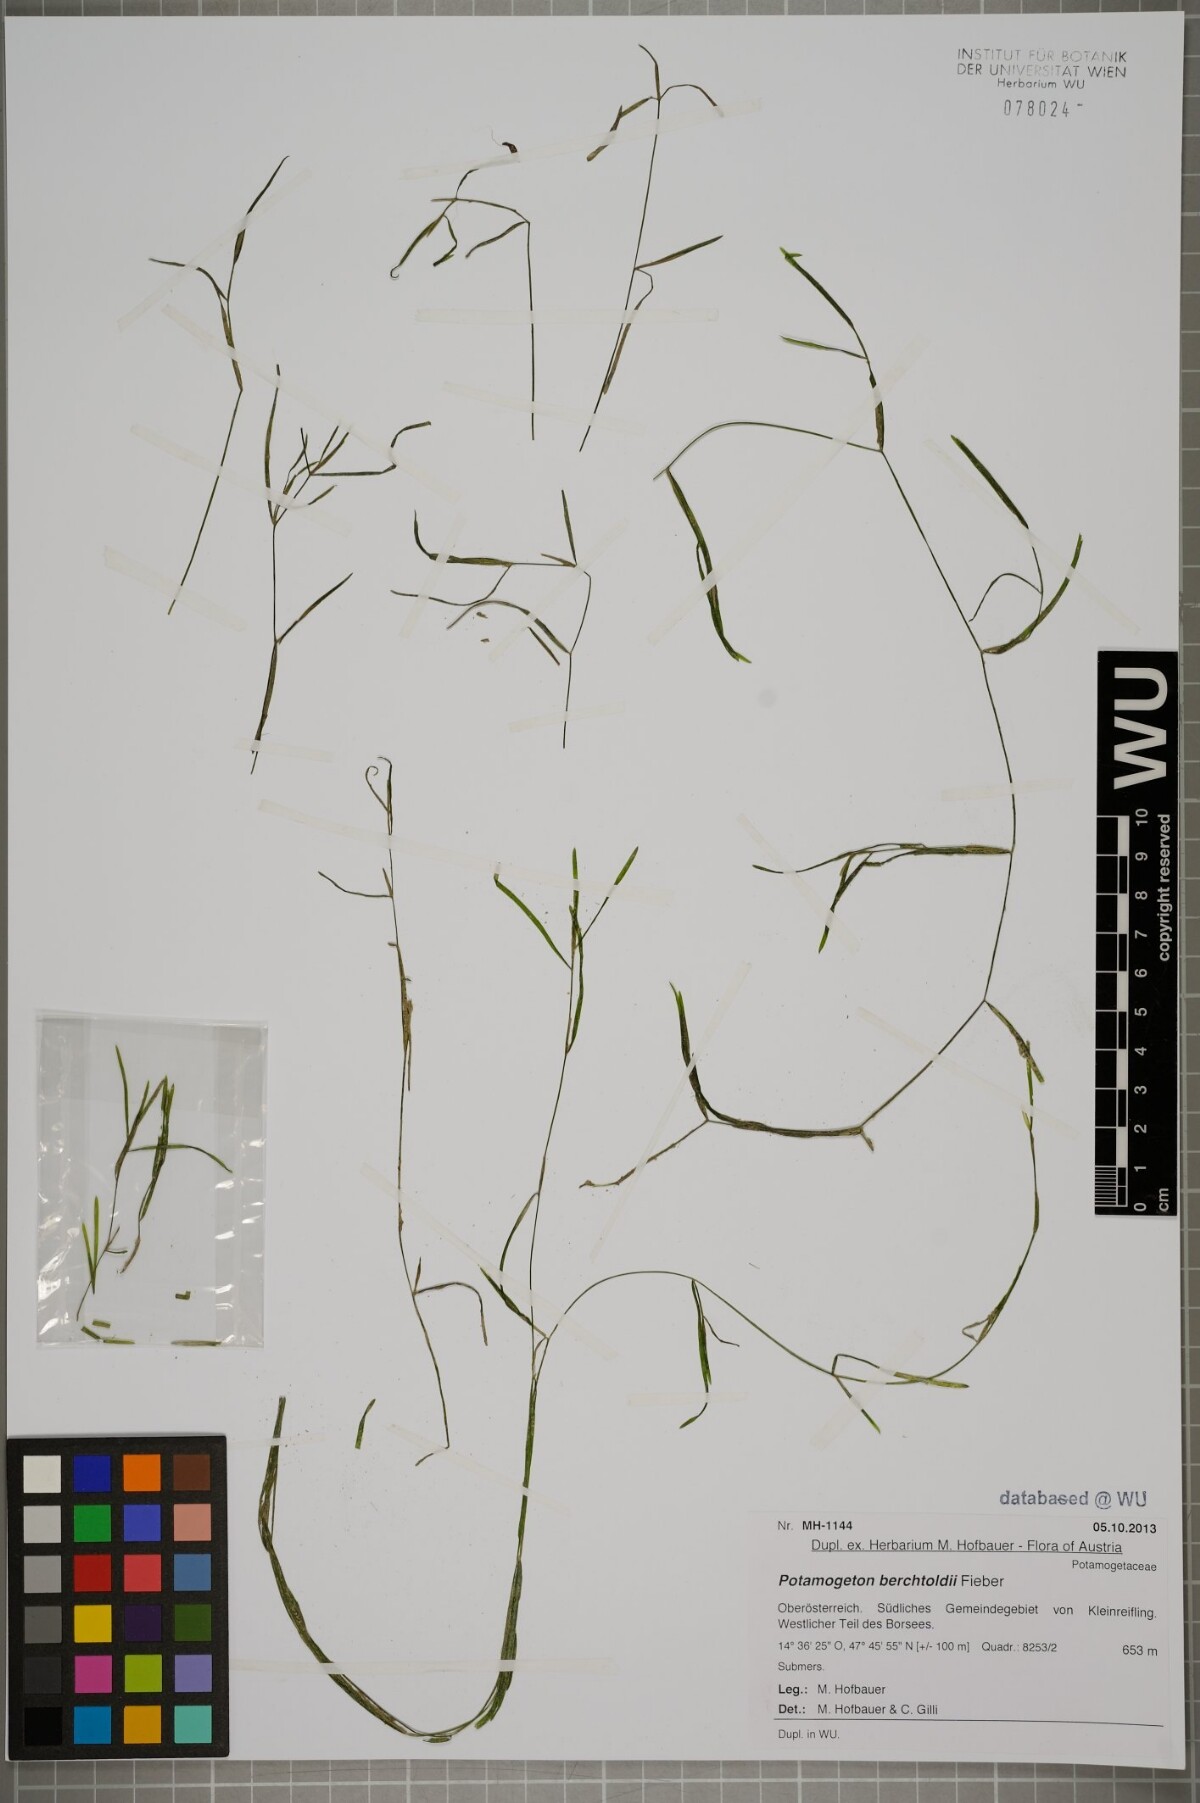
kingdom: Plantae
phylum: Tracheophyta
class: Liliopsida
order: Alismatales
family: Potamogetonaceae
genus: Potamogeton
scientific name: Potamogeton berchtoldii
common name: Small pondweed
